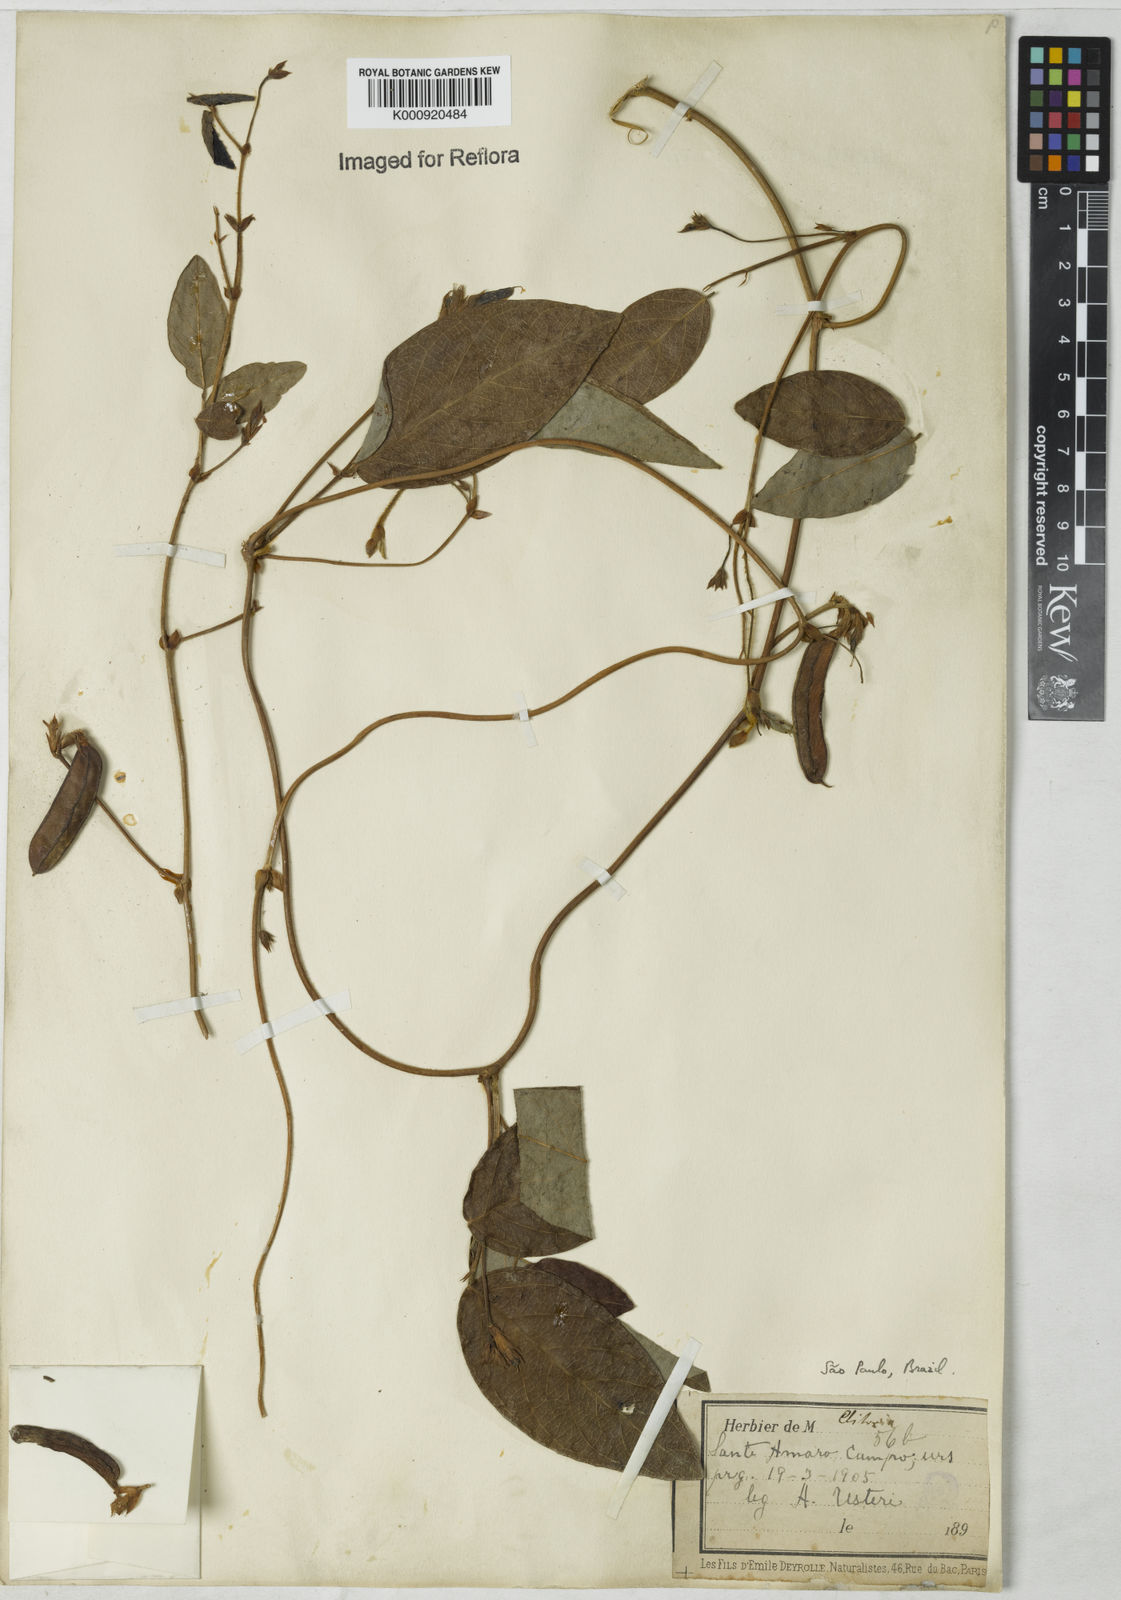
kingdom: Plantae
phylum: Tracheophyta
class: Magnoliopsida
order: Fabales
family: Fabaceae
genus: Clitoria
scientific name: Clitoria
